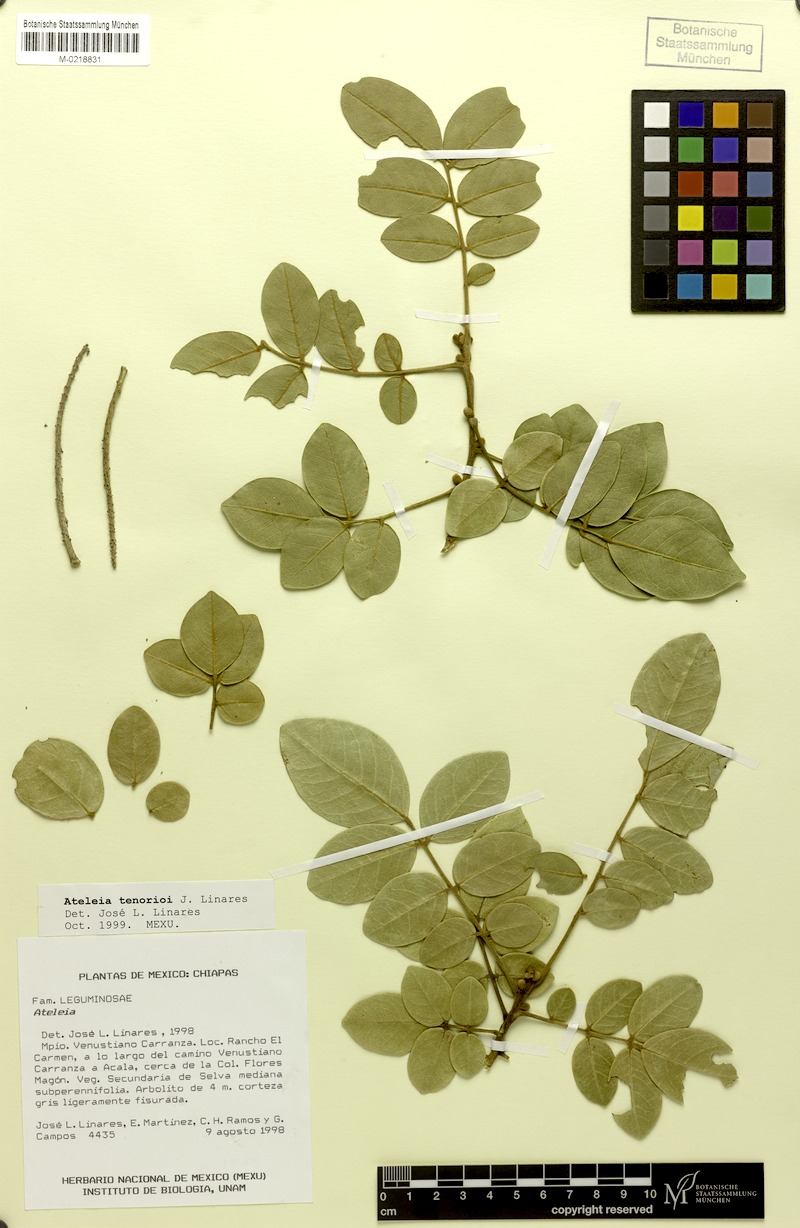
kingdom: Plantae
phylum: Tracheophyta
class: Magnoliopsida
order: Fabales
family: Fabaceae
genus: Ateleia
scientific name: Ateleia tenorioi
